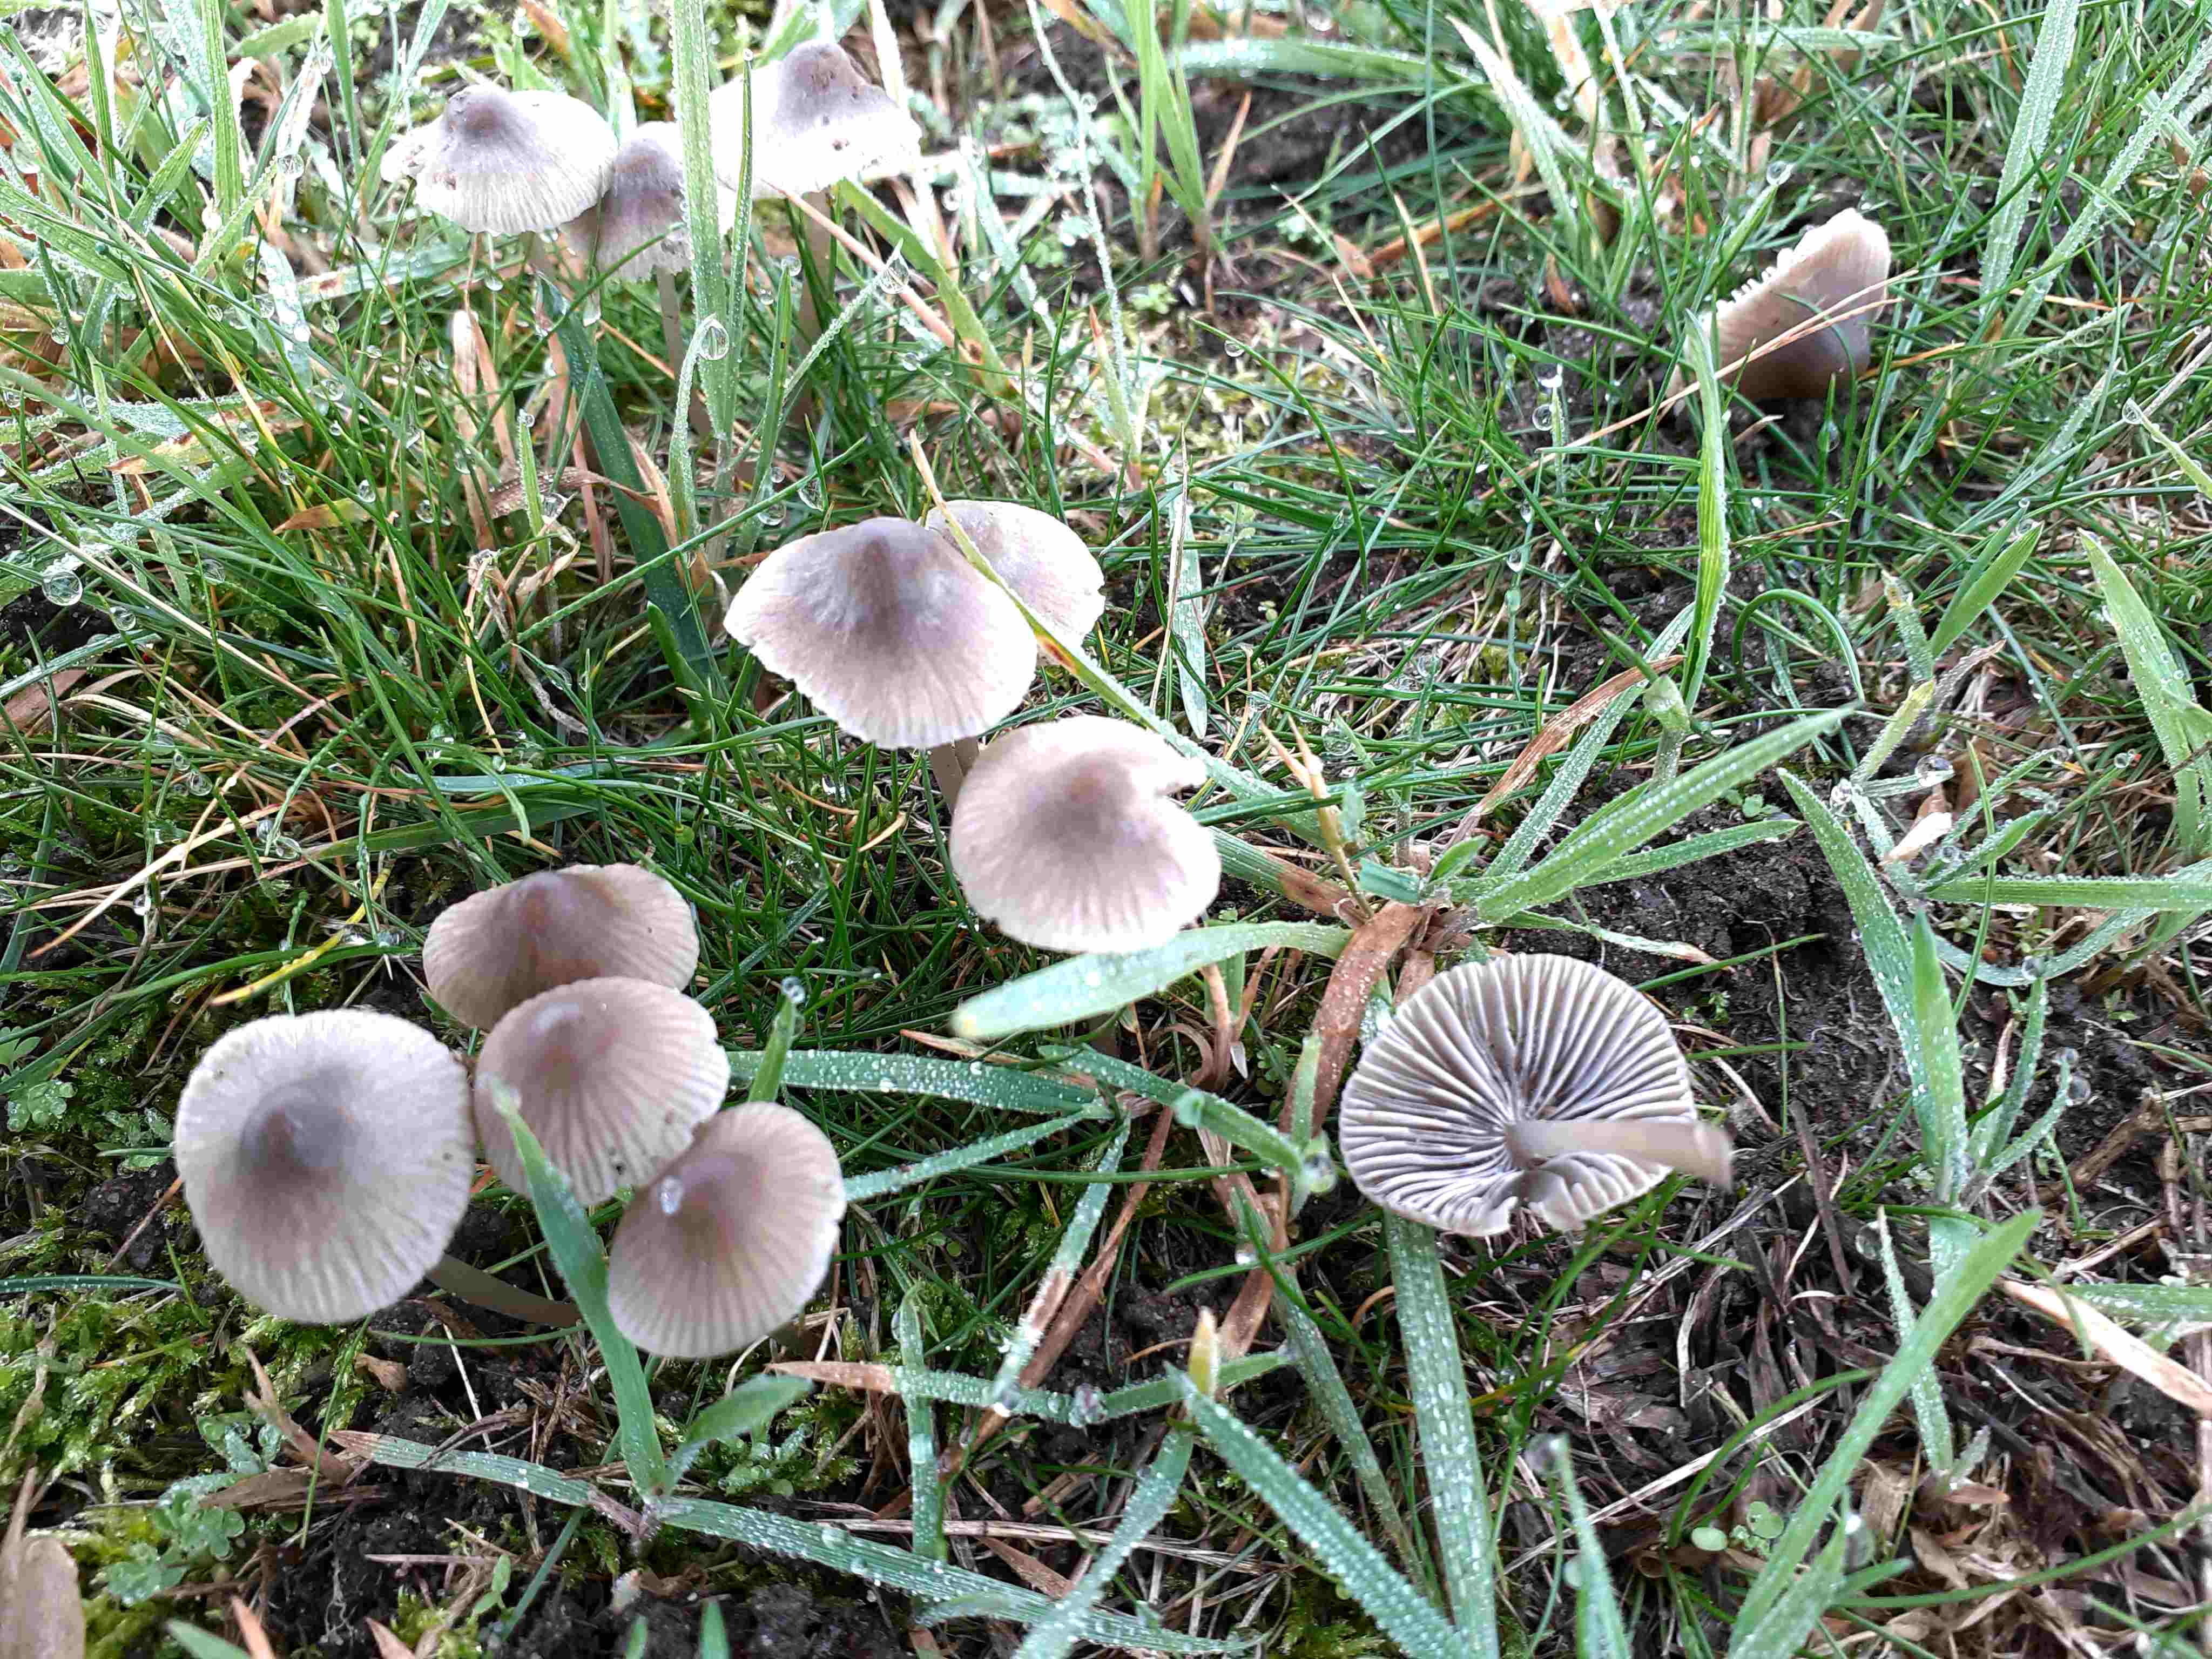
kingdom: Fungi
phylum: Basidiomycota
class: Agaricomycetes
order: Agaricales
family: Mycenaceae
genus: Mycena
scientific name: Mycena aetites
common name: plæne-huesvamp
